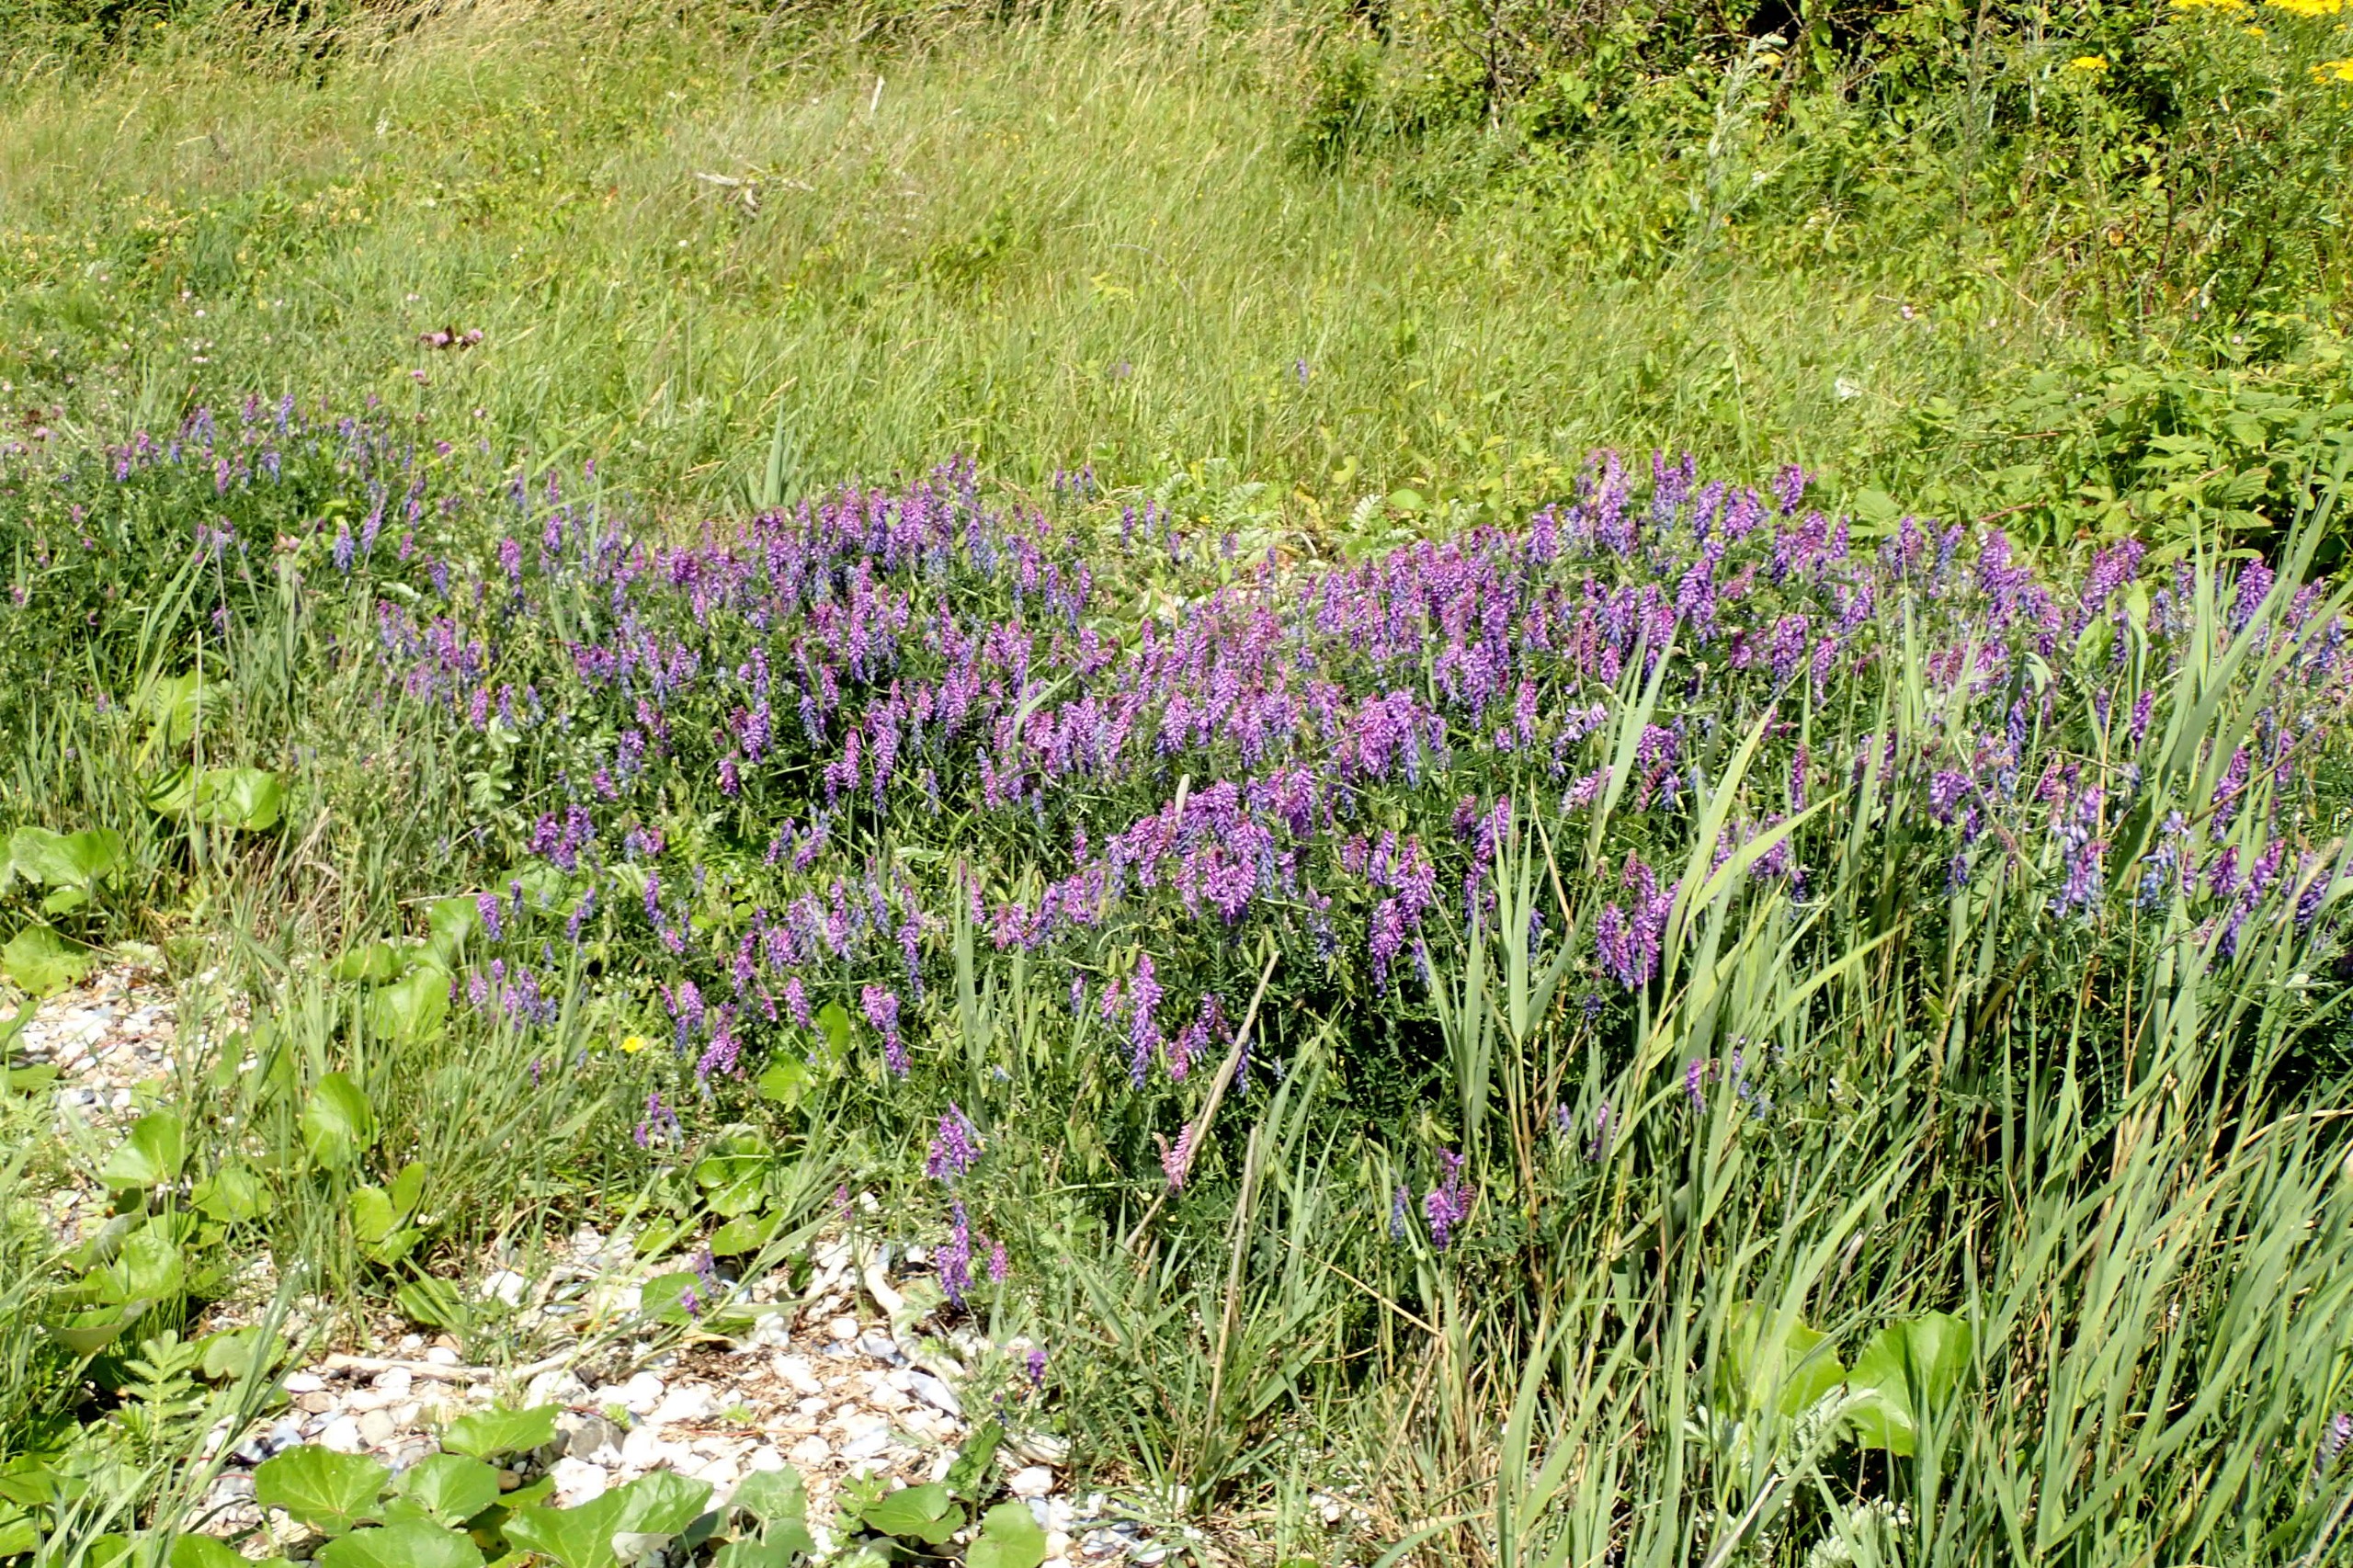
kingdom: Plantae
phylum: Tracheophyta
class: Magnoliopsida
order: Fabales
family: Fabaceae
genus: Vicia
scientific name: Vicia cracca
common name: Muse-vikke
